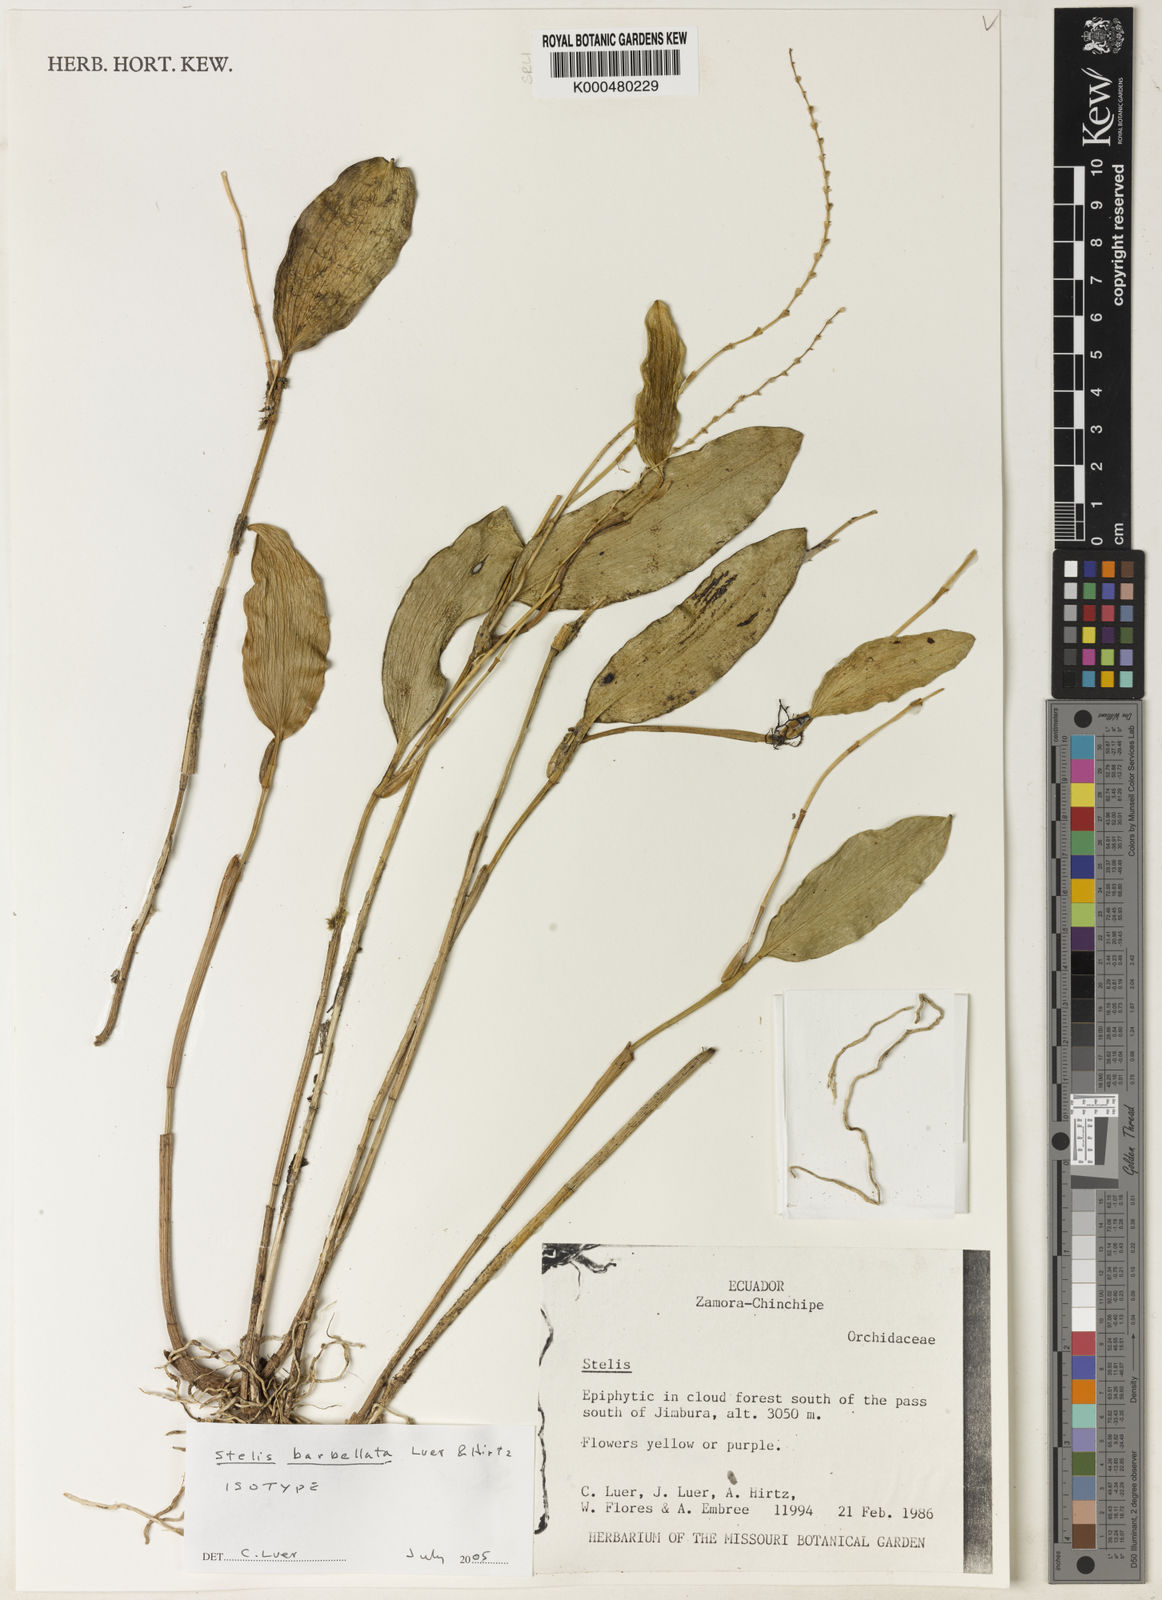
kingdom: Plantae
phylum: Tracheophyta
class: Liliopsida
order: Asparagales
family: Orchidaceae
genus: Stelis
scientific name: Stelis barbellata
